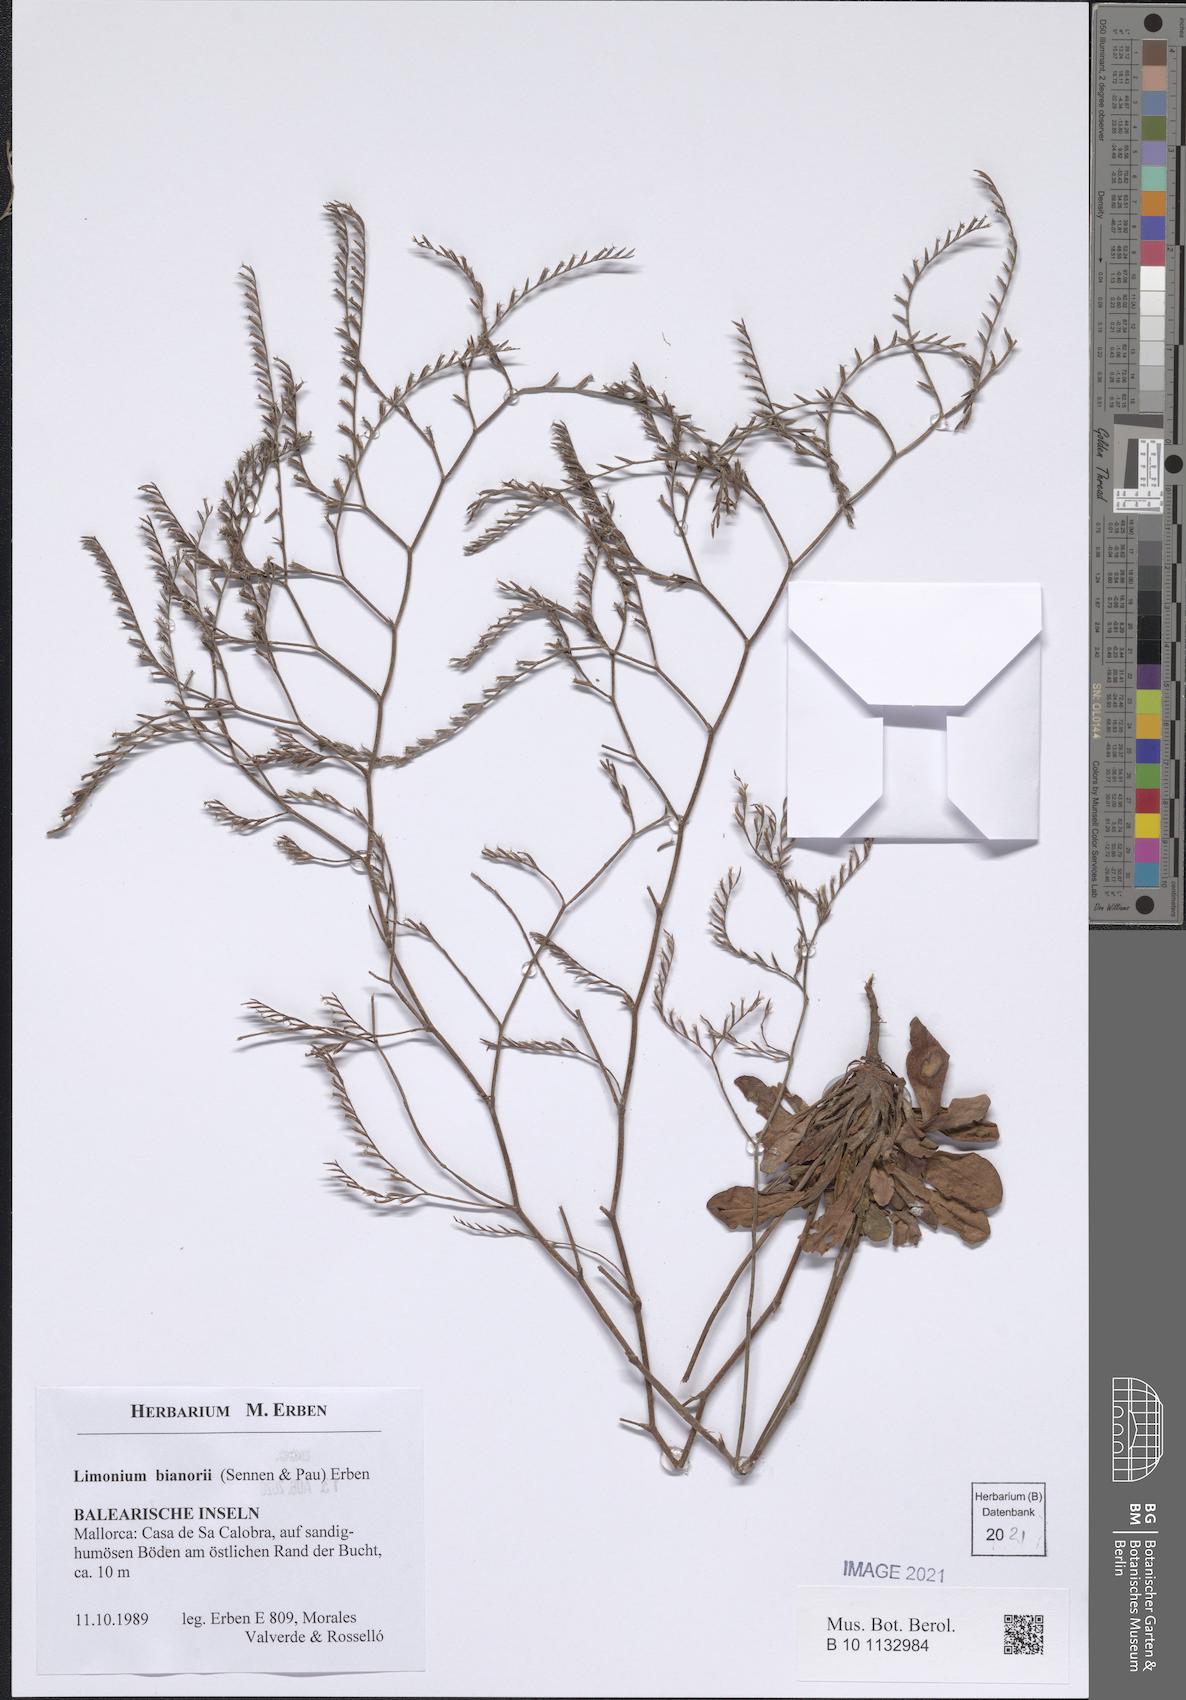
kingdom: Plantae
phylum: Tracheophyta
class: Magnoliopsida
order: Caryophyllales
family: Plumbaginaceae
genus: Limonium
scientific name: Limonium bianorii
